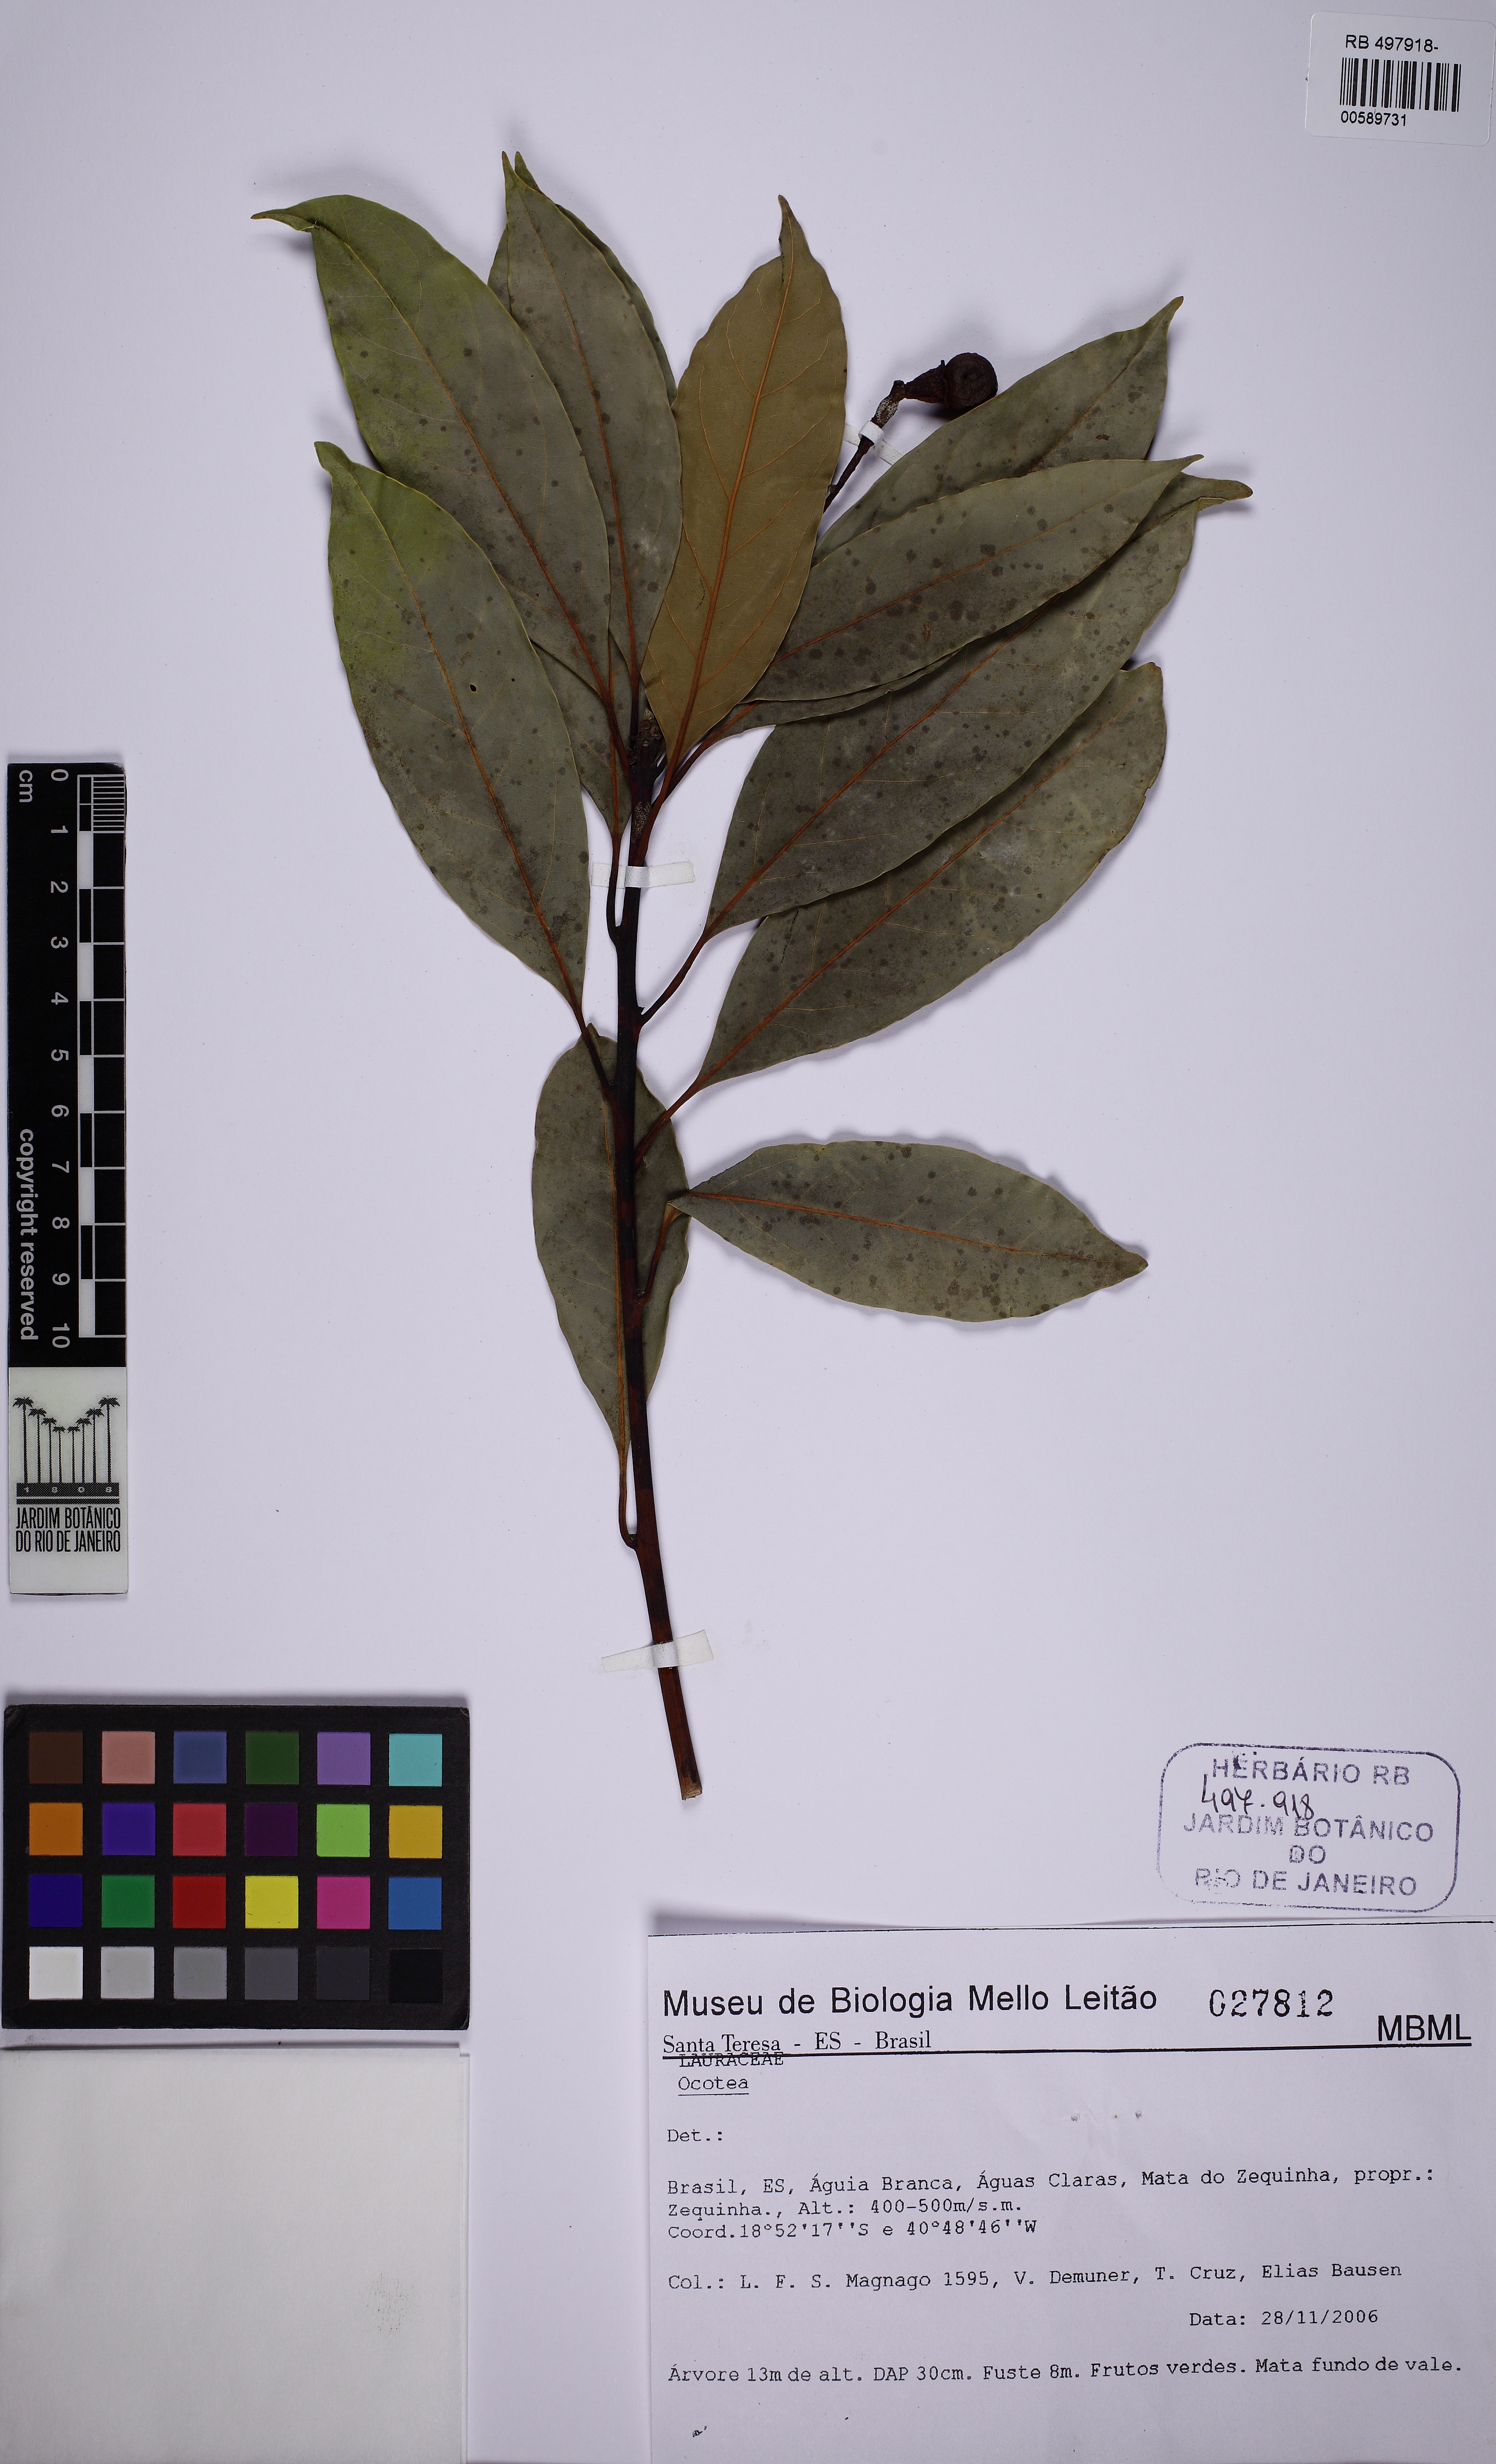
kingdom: Plantae
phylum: Tracheophyta
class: Magnoliopsida
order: Laurales
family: Lauraceae
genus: Aiouea
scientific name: Aiouea saligna
